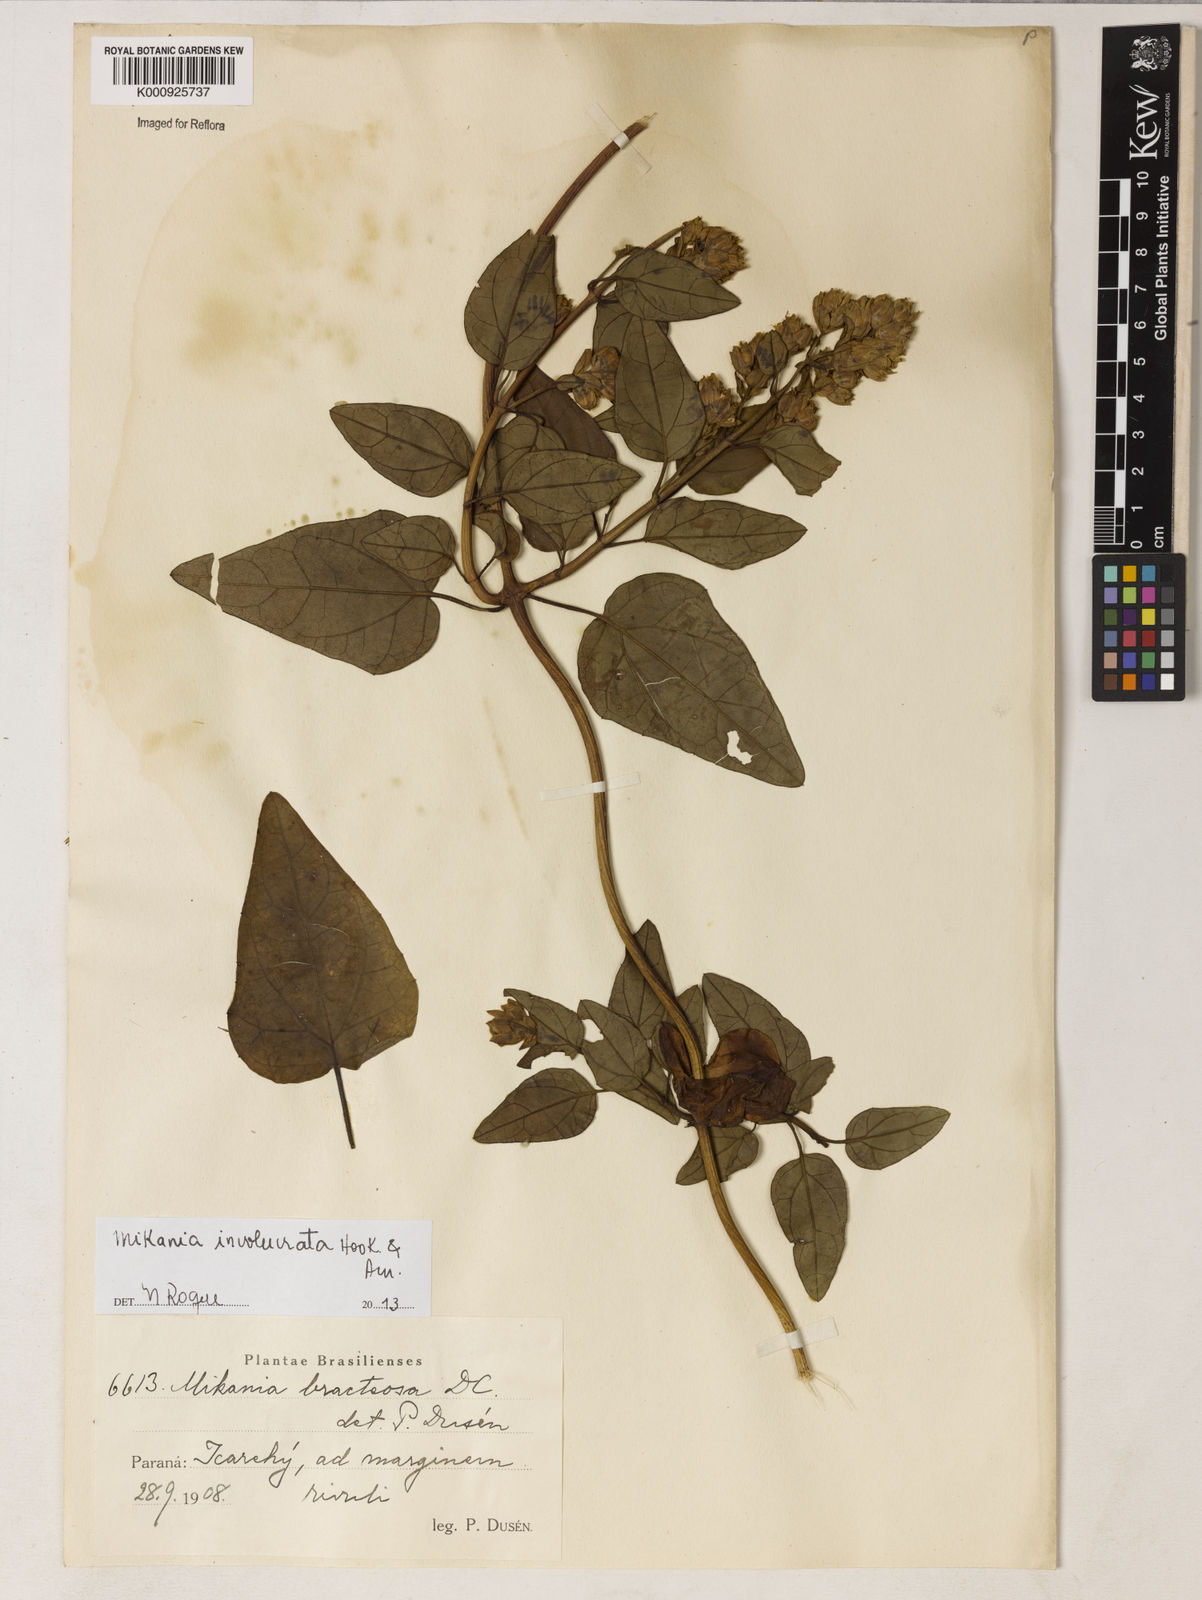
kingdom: Plantae
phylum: Tracheophyta
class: Magnoliopsida
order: Asterales
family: Asteraceae
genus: Mikania
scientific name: Mikania involucrata
